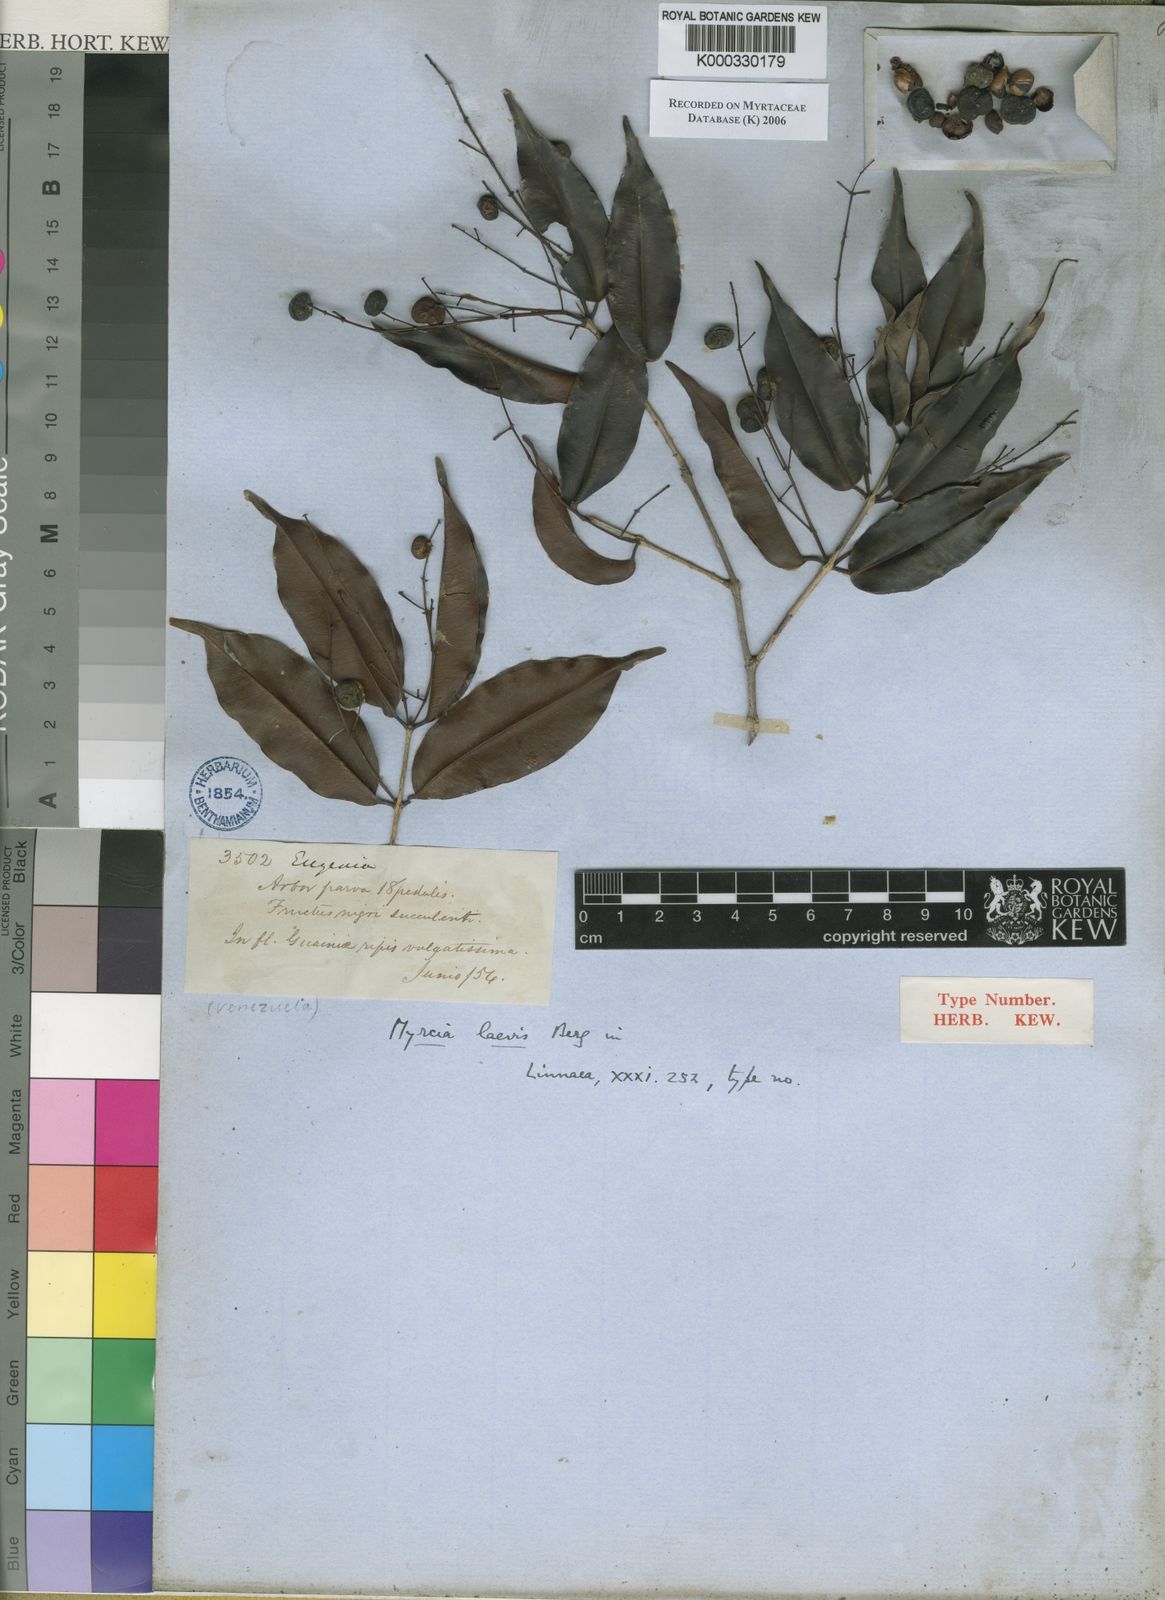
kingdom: Plantae
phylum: Tracheophyta
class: Magnoliopsida
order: Myrtales
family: Myrtaceae
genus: Myrcia
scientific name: Myrcia lucida
